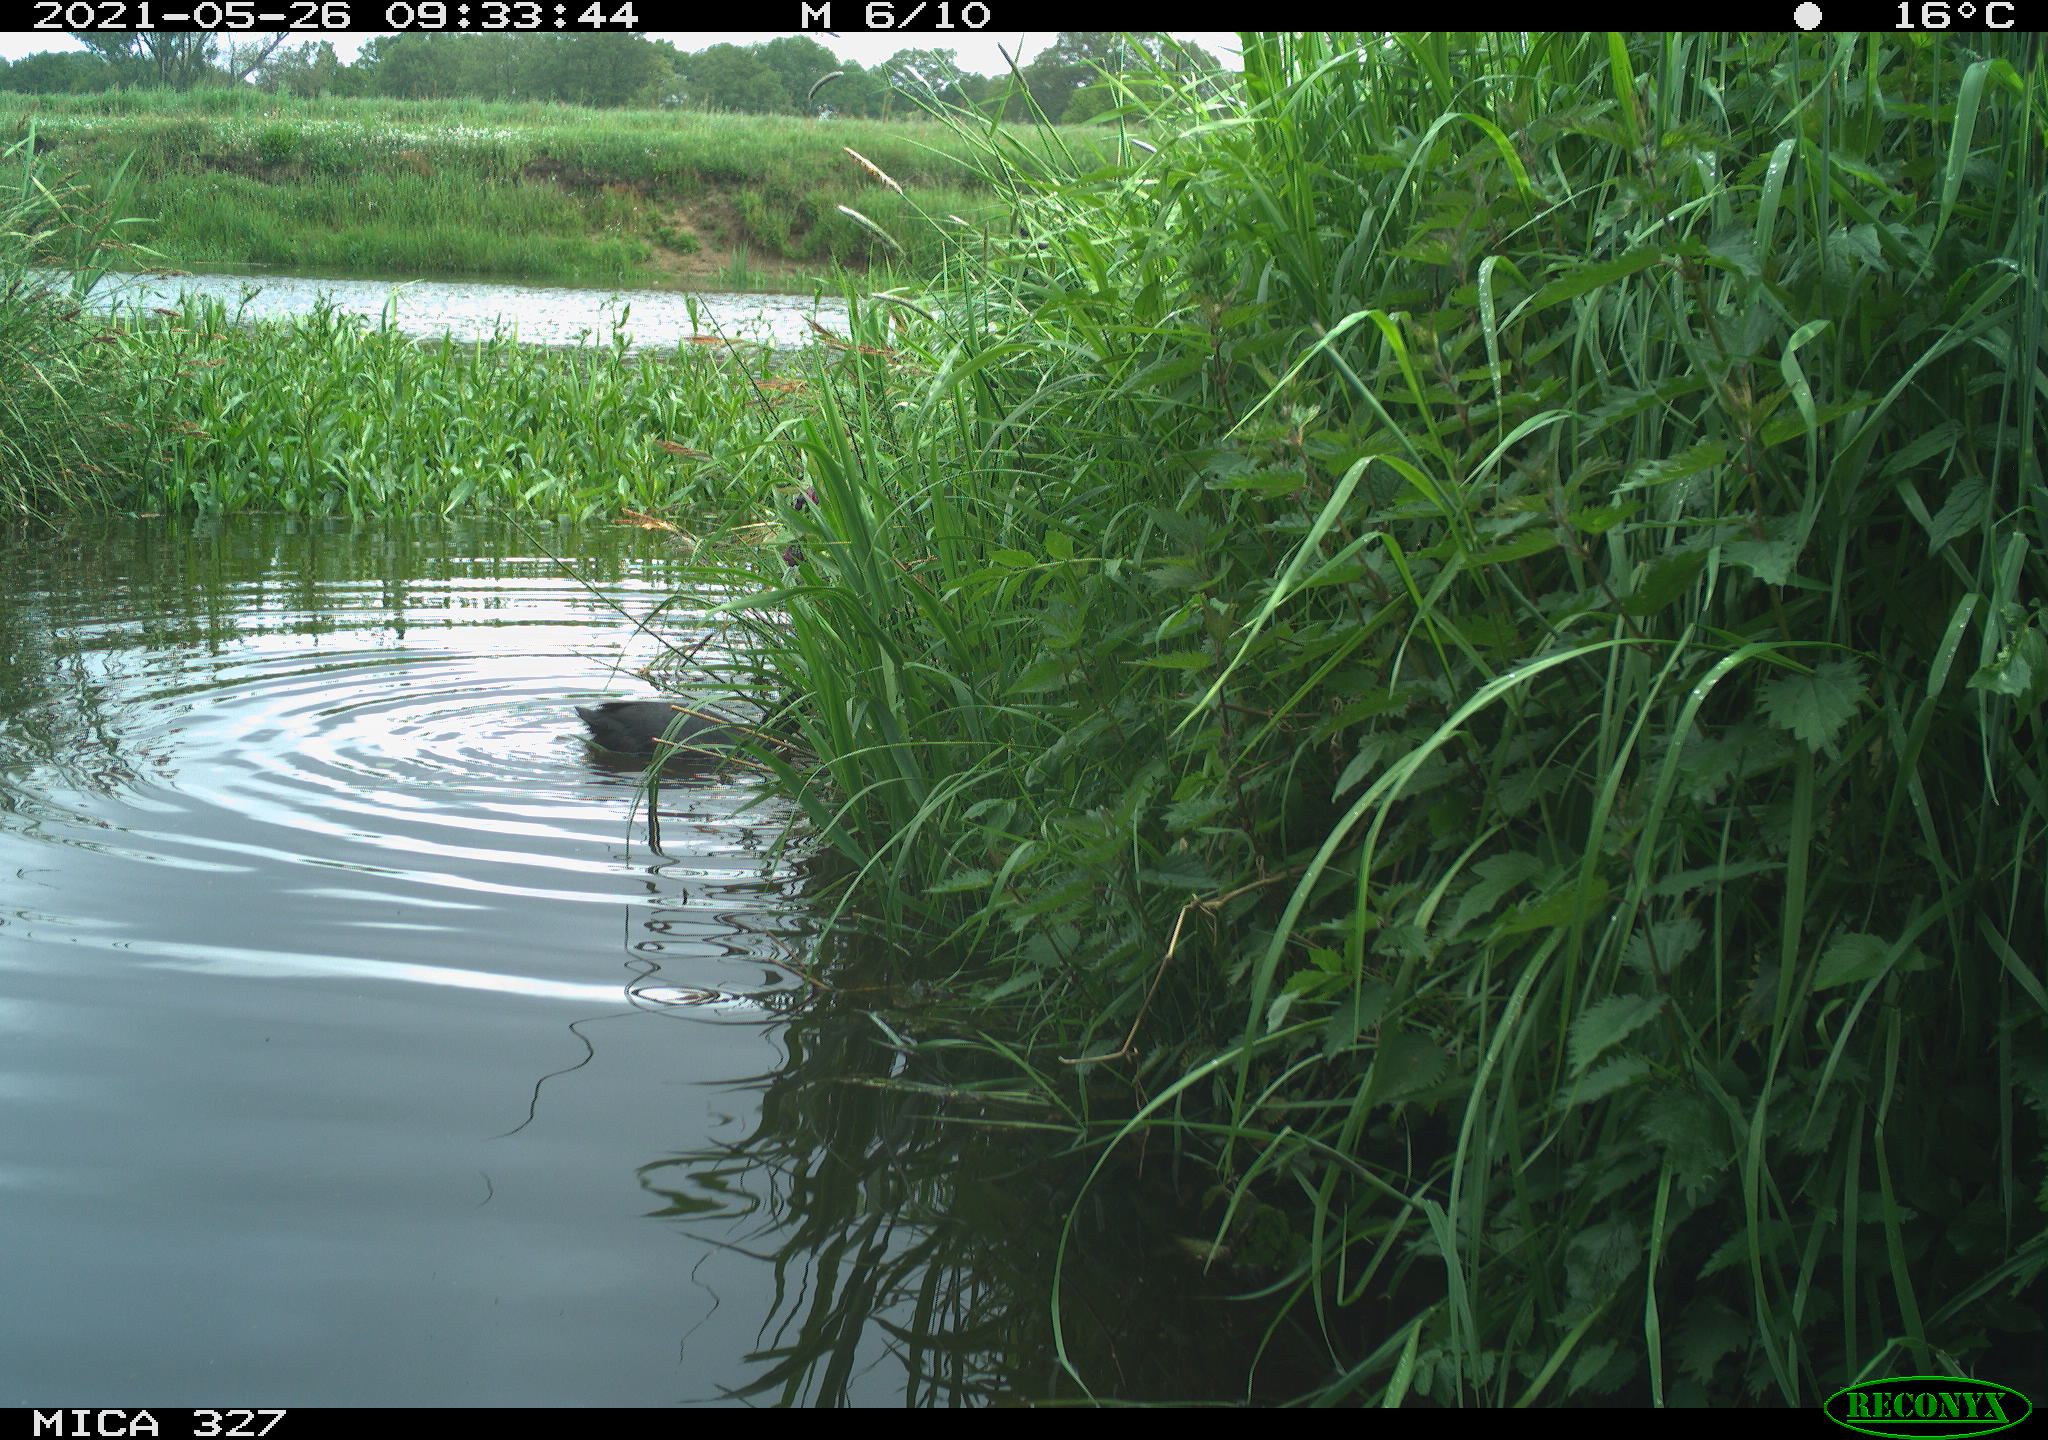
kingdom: Animalia
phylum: Chordata
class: Aves
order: Gruiformes
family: Rallidae
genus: Fulica
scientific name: Fulica atra
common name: Eurasian coot
